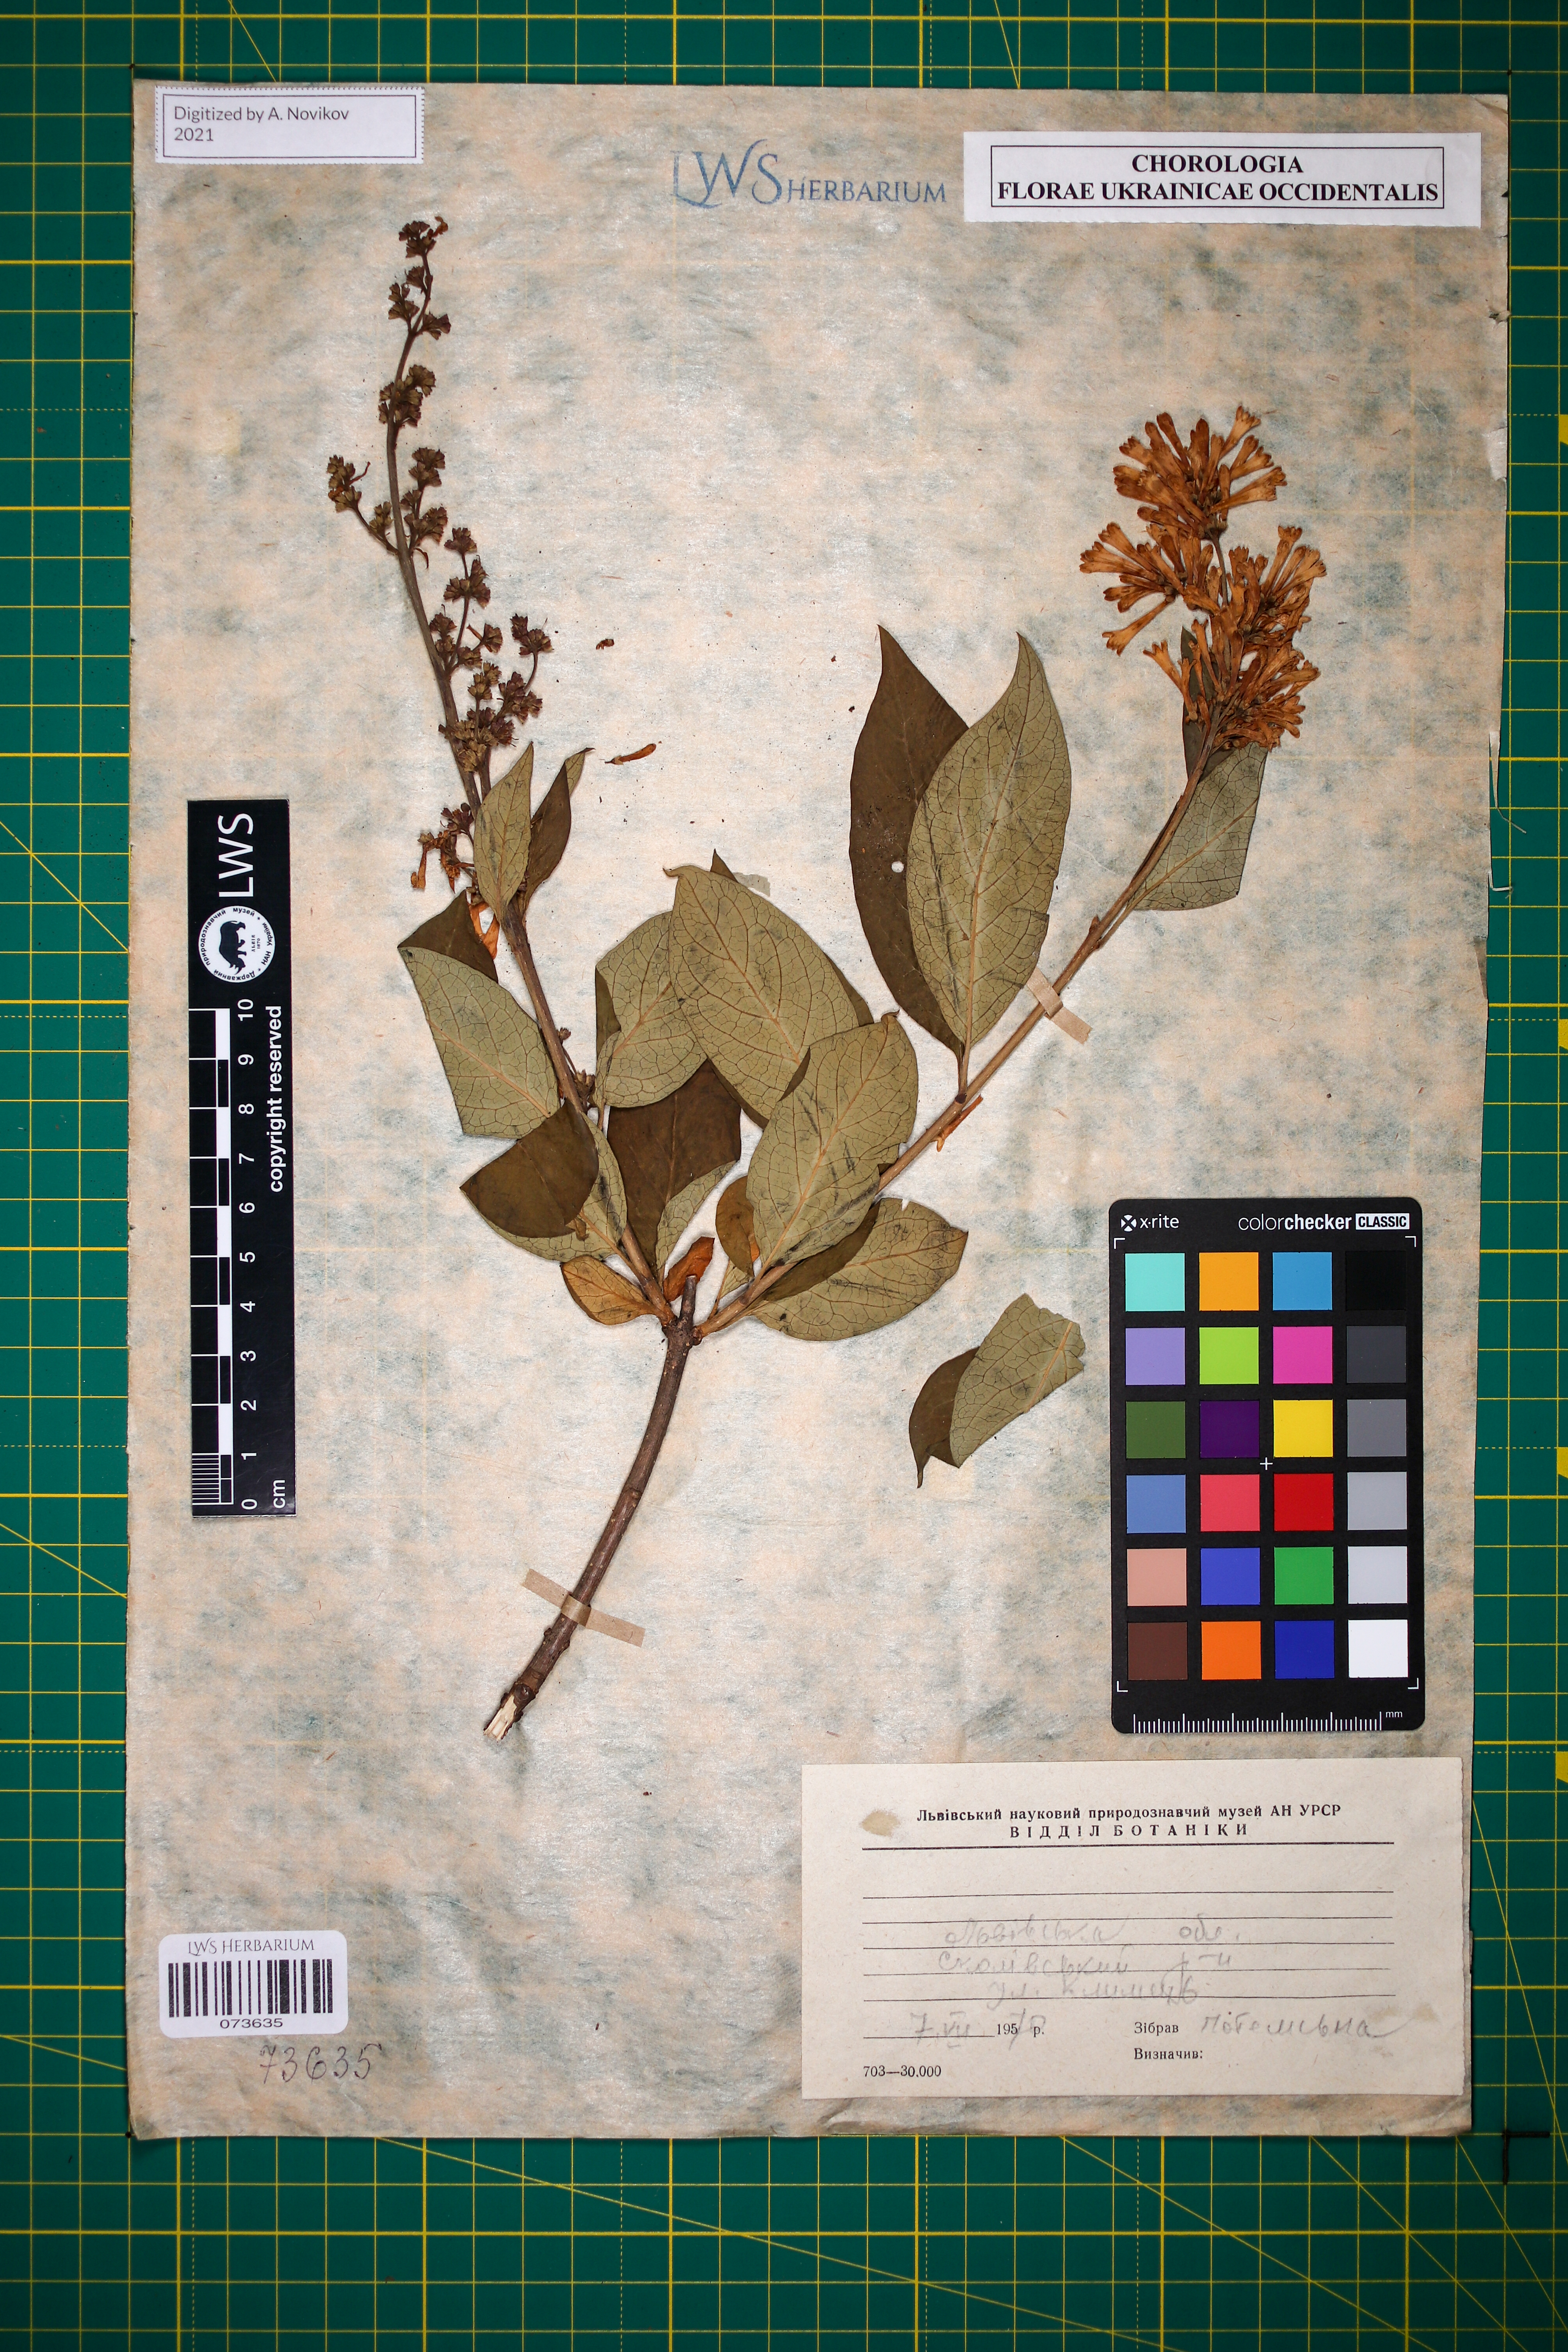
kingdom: Plantae
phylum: Tracheophyta
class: Magnoliopsida
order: Lamiales
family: Oleaceae
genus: Syringa
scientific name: Syringa josikaea
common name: Hungarian lilac
